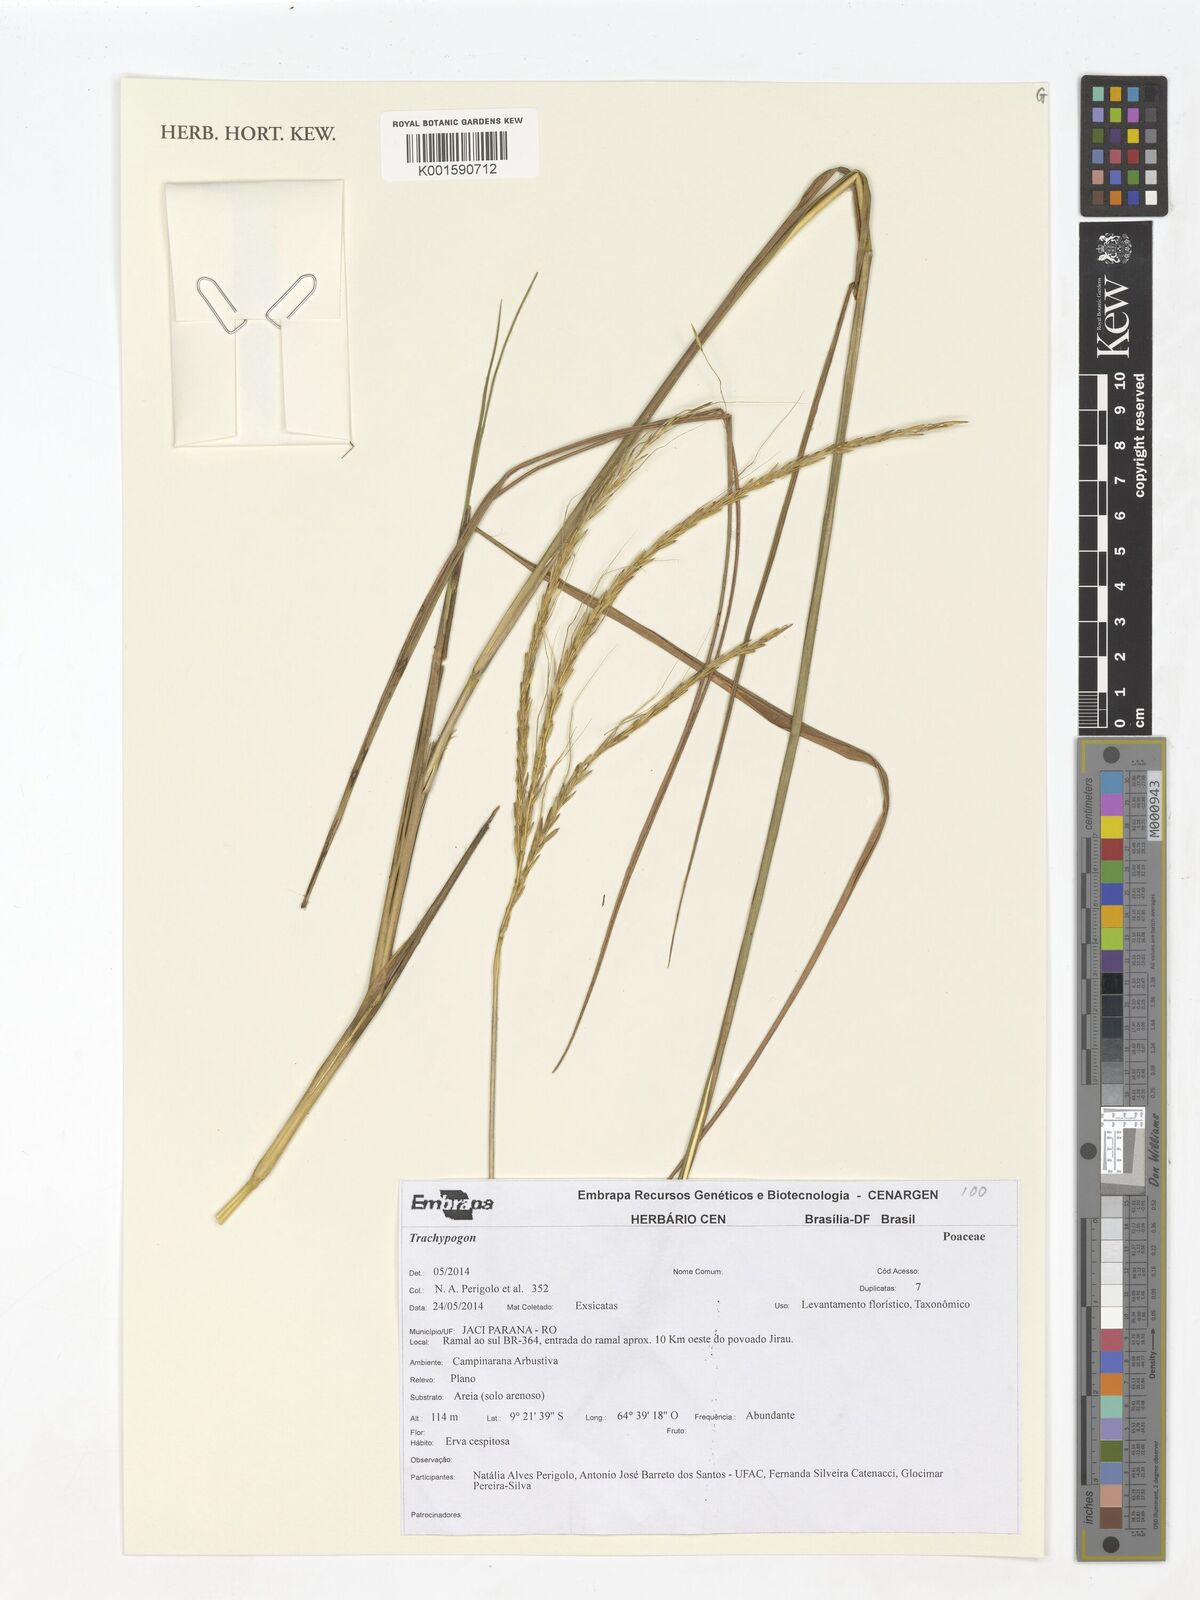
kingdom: Plantae
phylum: Tracheophyta
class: Liliopsida
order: Poales
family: Poaceae
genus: Trachypogon
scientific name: Trachypogon
